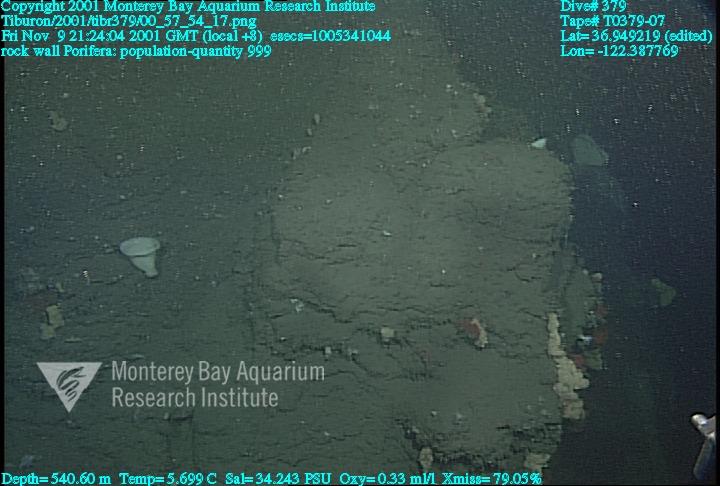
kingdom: Animalia
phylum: Porifera
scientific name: Porifera
